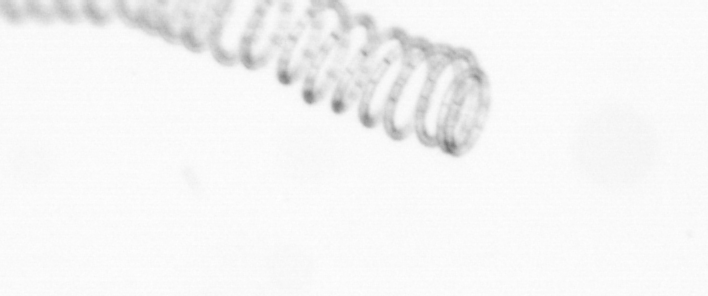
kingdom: Chromista
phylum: Ochrophyta
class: Bacillariophyceae
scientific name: Bacillariophyceae
